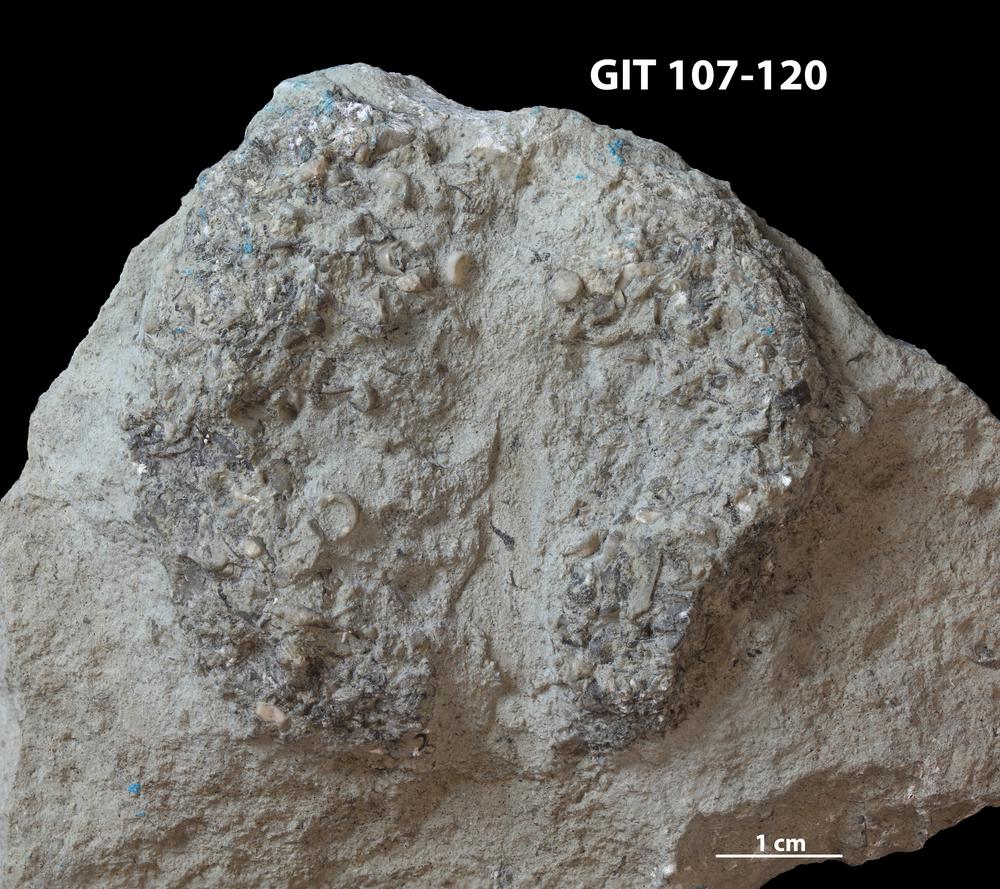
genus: Conichnus
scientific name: Conichnus
